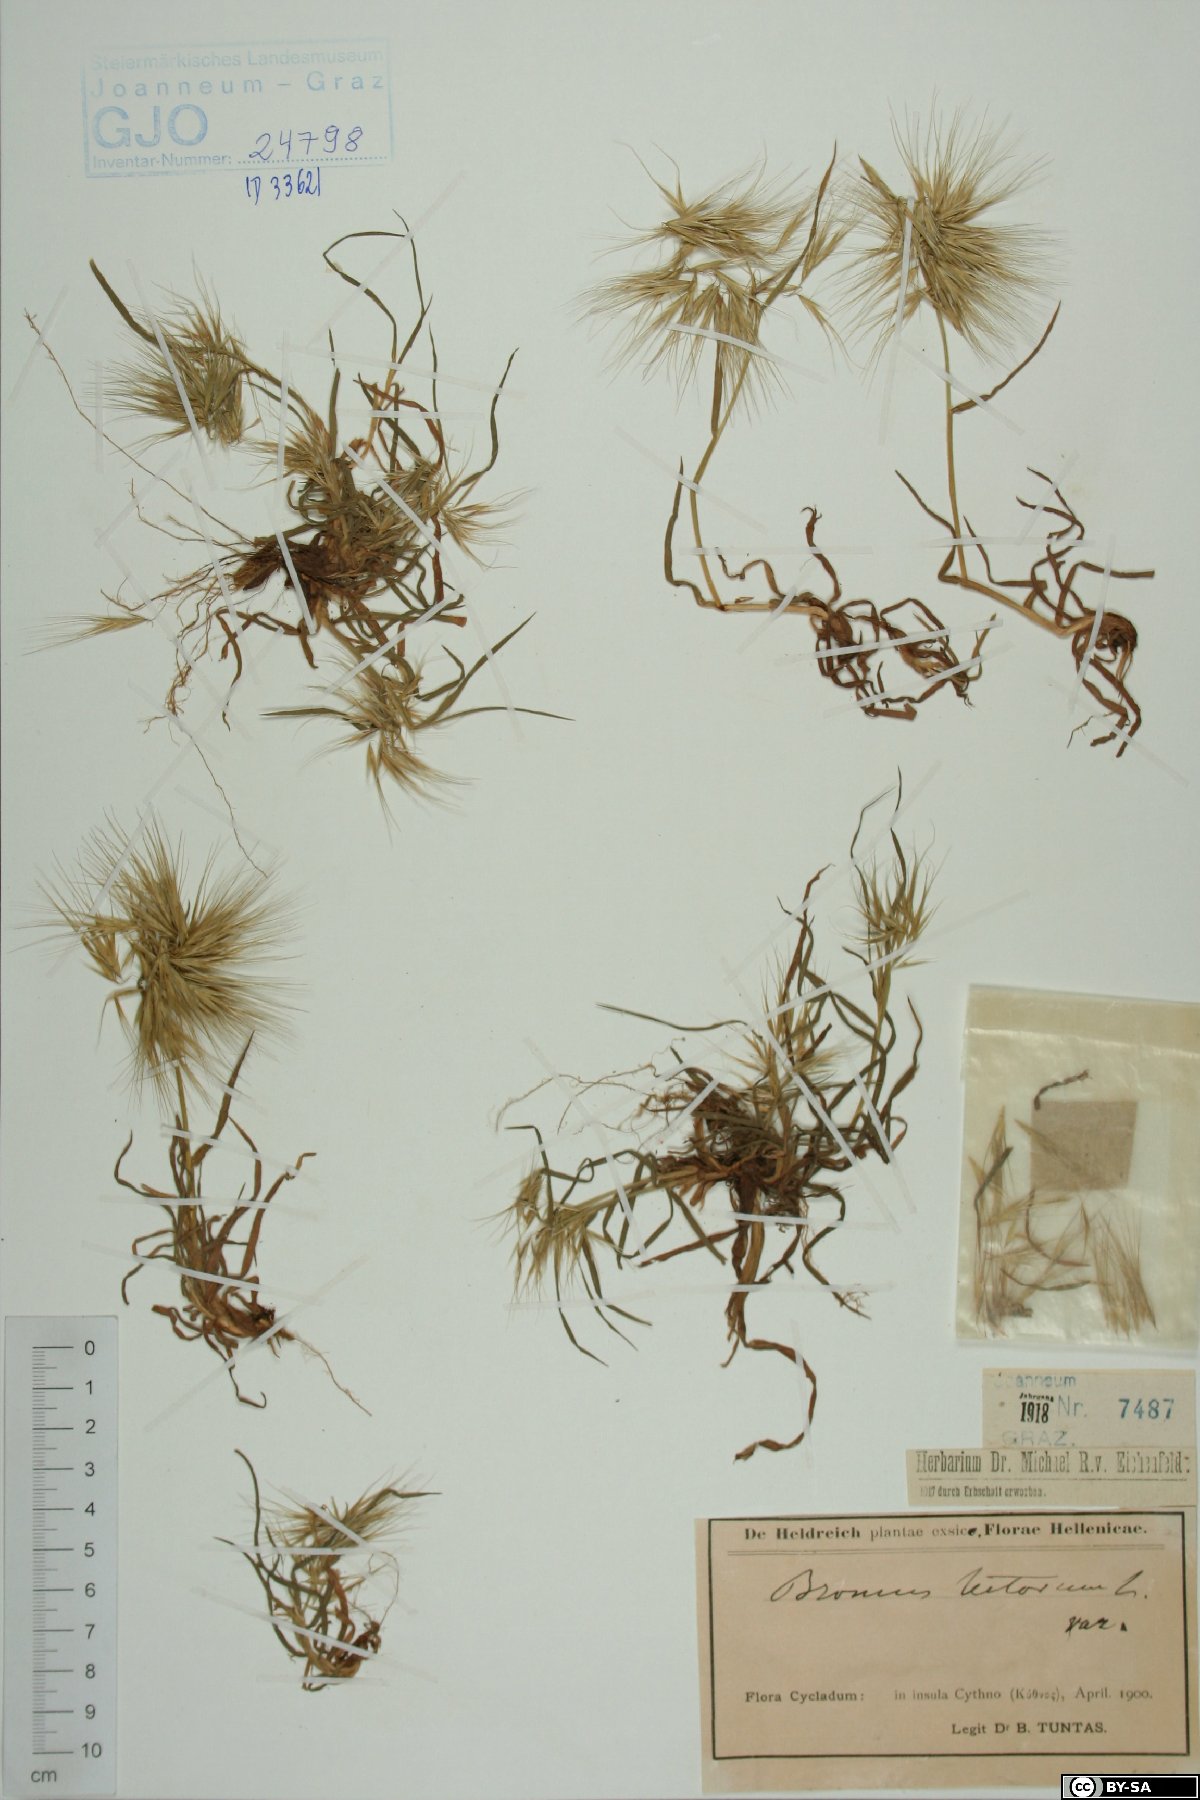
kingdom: Plantae
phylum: Tracheophyta
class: Liliopsida
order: Poales
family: Poaceae
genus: Bromus
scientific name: Bromus tectorum
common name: Cheatgrass
